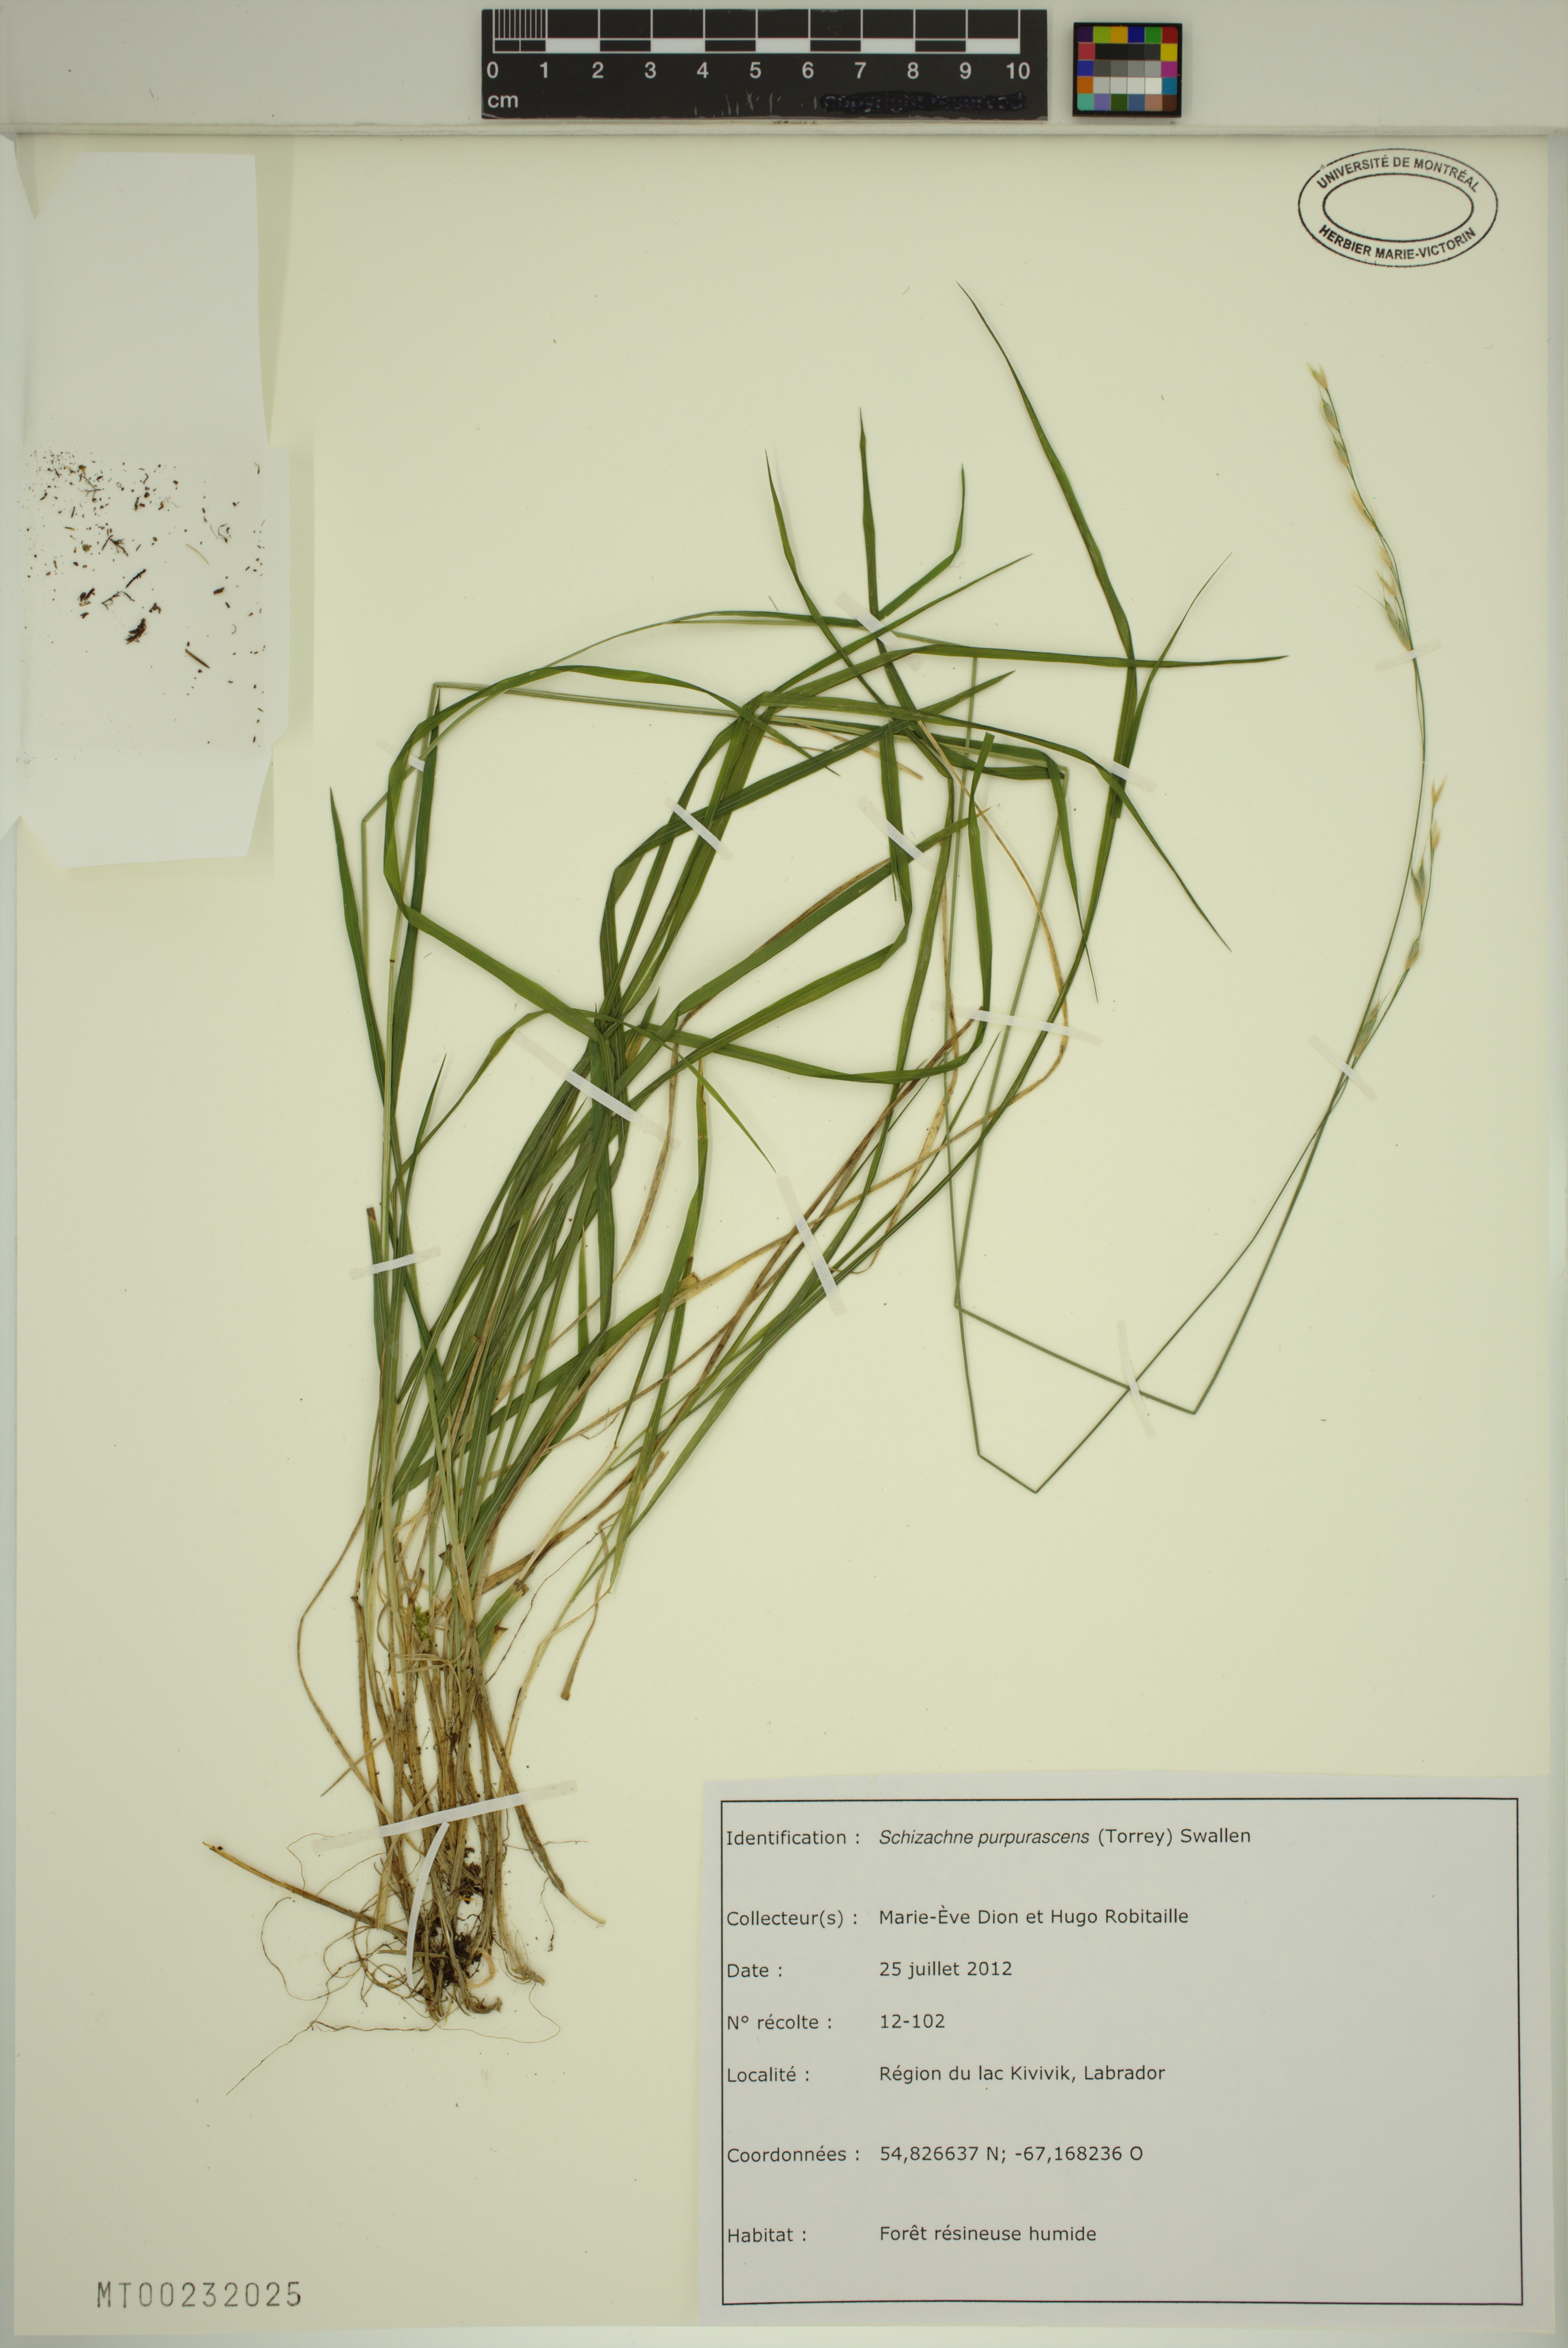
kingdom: Plantae
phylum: Tracheophyta
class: Liliopsida
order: Poales
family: Poaceae
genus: Schizachne
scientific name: Schizachne purpurascens
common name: False melic
